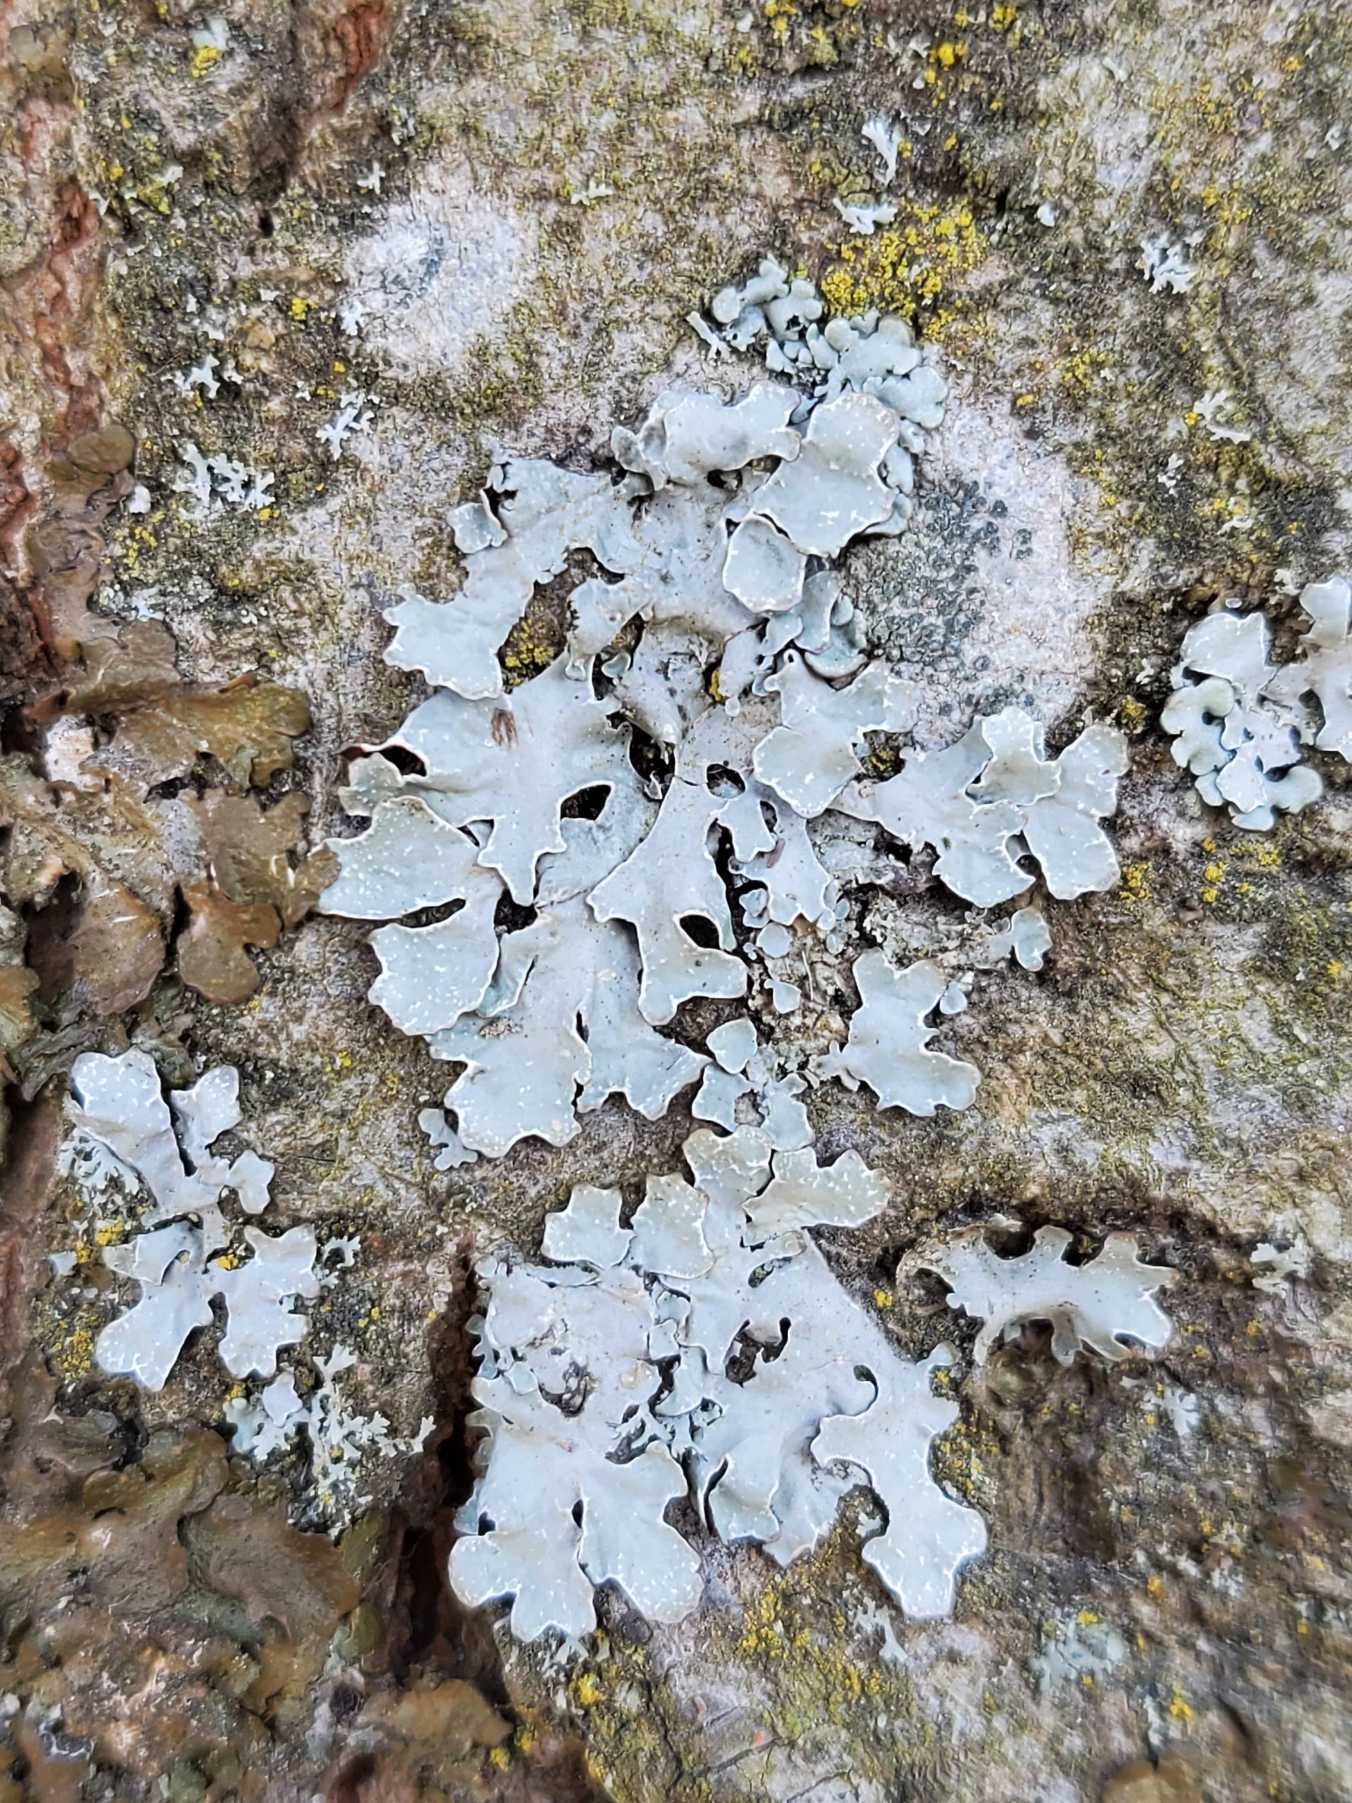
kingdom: Fungi
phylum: Ascomycota
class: Lecanoromycetes
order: Lecanorales
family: Parmeliaceae
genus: Parmelia
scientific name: Parmelia sulcata
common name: Rynket skållav
